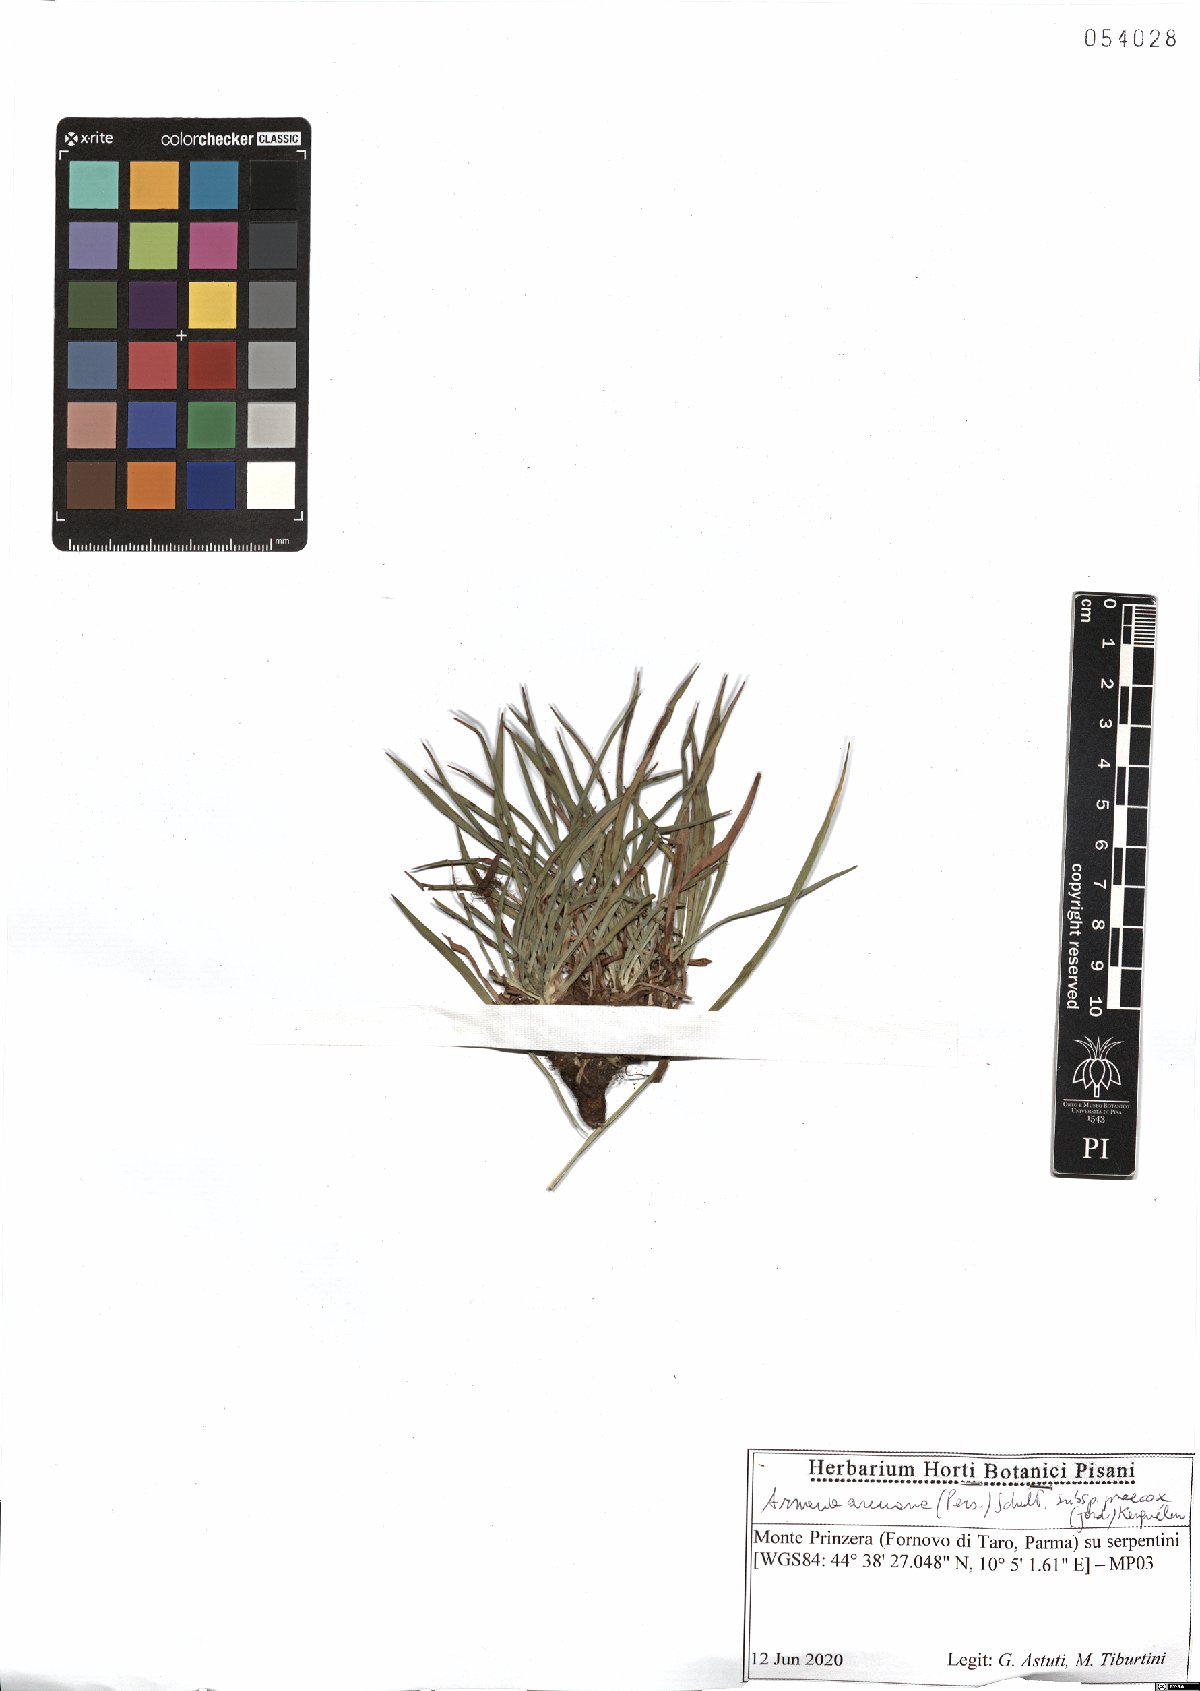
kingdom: Plantae
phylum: Tracheophyta
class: Magnoliopsida
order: Caryophyllales
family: Plumbaginaceae
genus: Armeria
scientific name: Armeria arenaria
